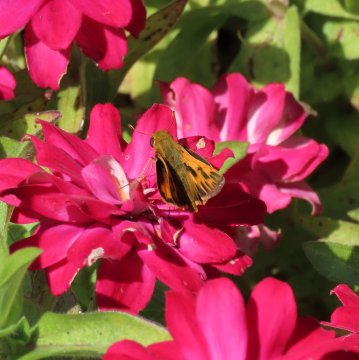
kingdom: Animalia
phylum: Arthropoda
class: Insecta
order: Lepidoptera
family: Hesperiidae
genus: Hylephila
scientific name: Hylephila phyleus
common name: Fiery Skipper
